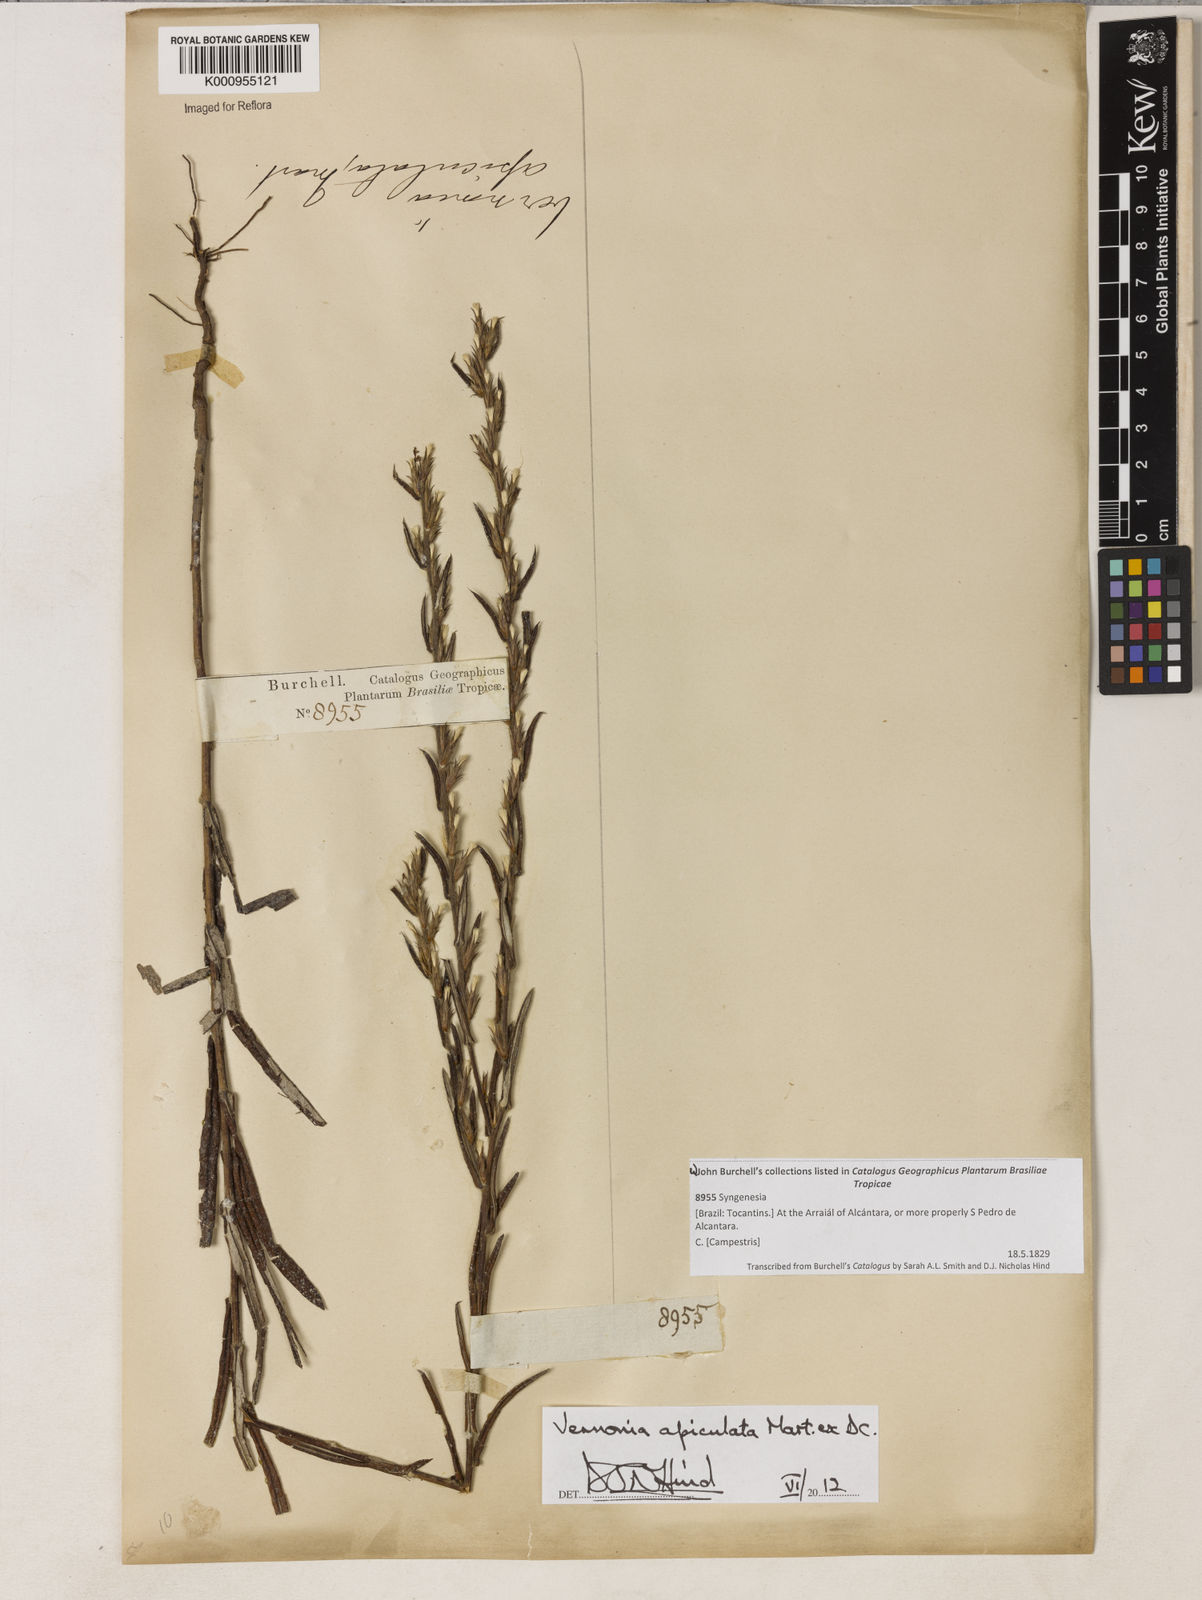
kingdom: Plantae
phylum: Tracheophyta
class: Magnoliopsida
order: Asterales
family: Asteraceae
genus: Stenocephalum
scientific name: Stenocephalum apiculatum
